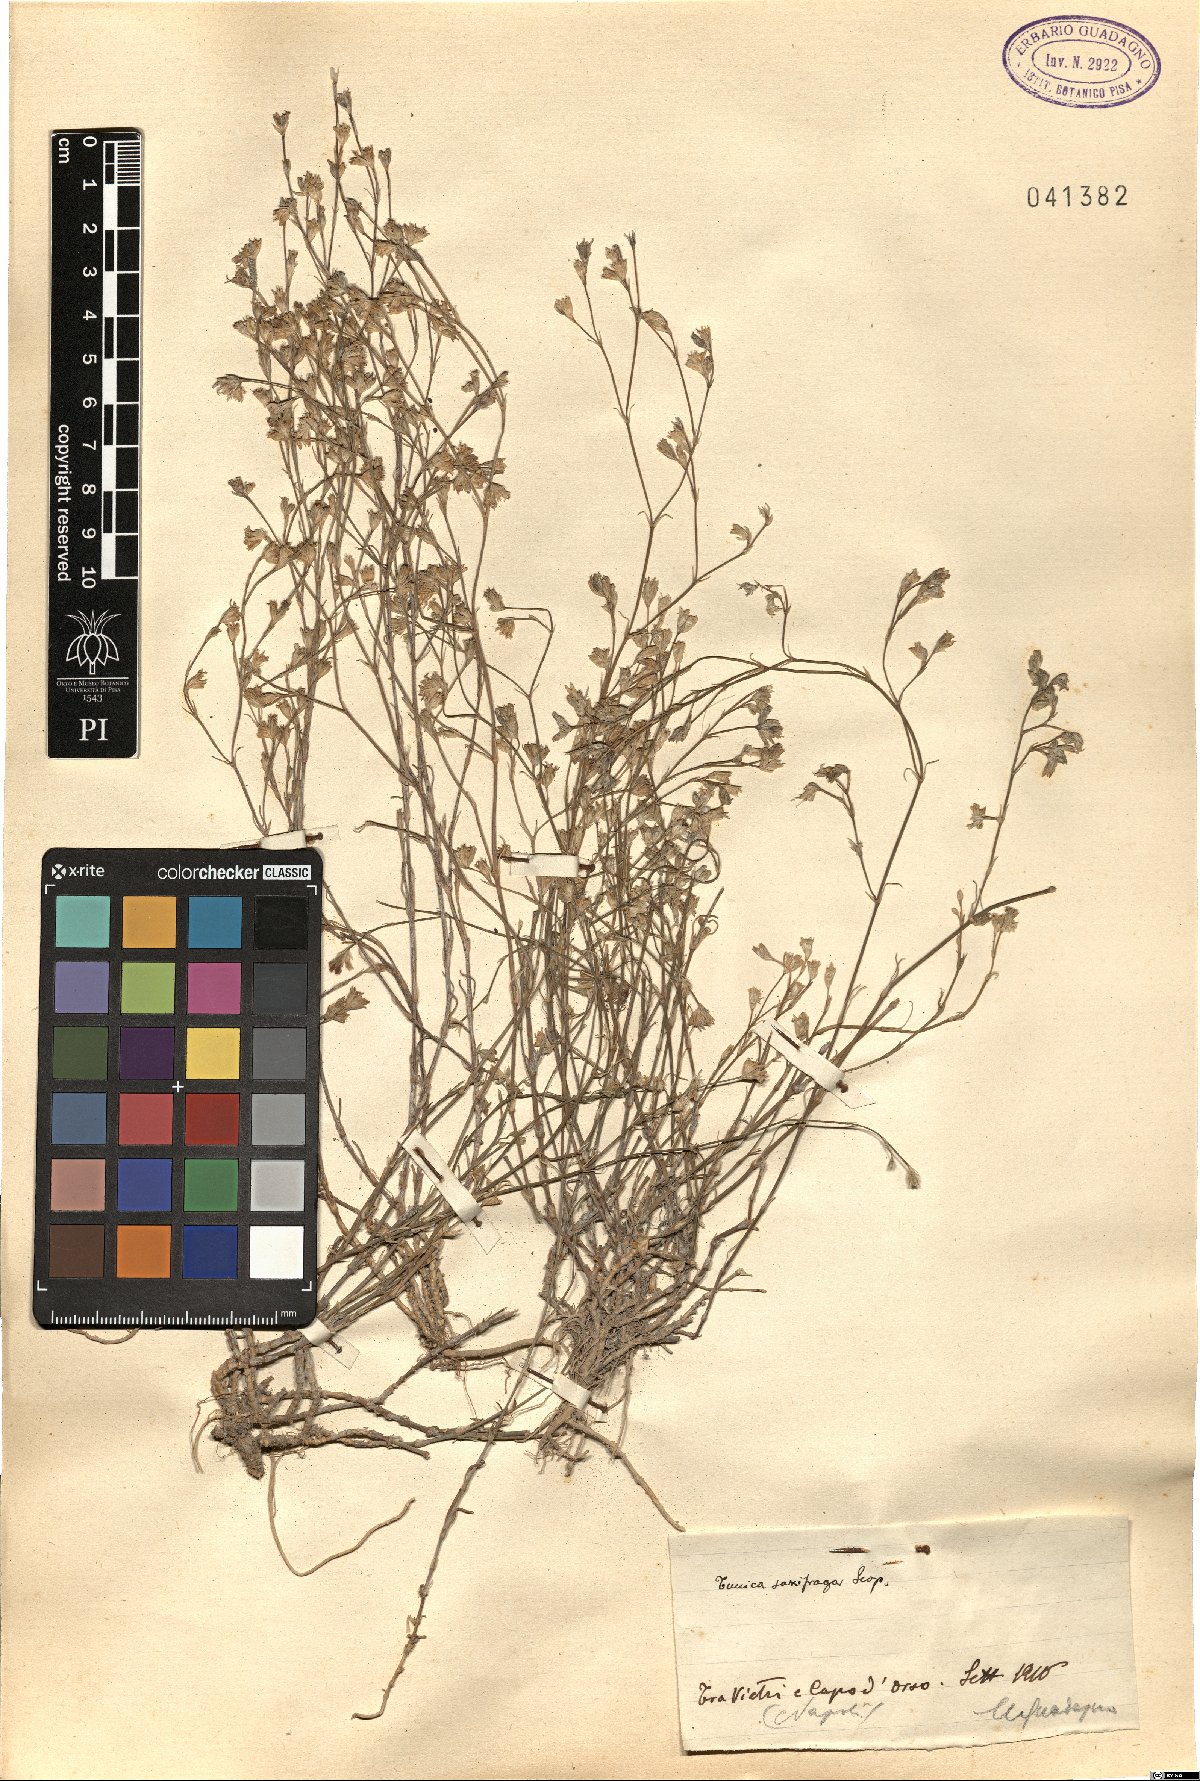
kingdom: Plantae
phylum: Tracheophyta
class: Magnoliopsida
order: Caryophyllales
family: Caryophyllaceae
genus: Petrorhagia
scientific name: Petrorhagia saxifraga
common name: Tunicflower
